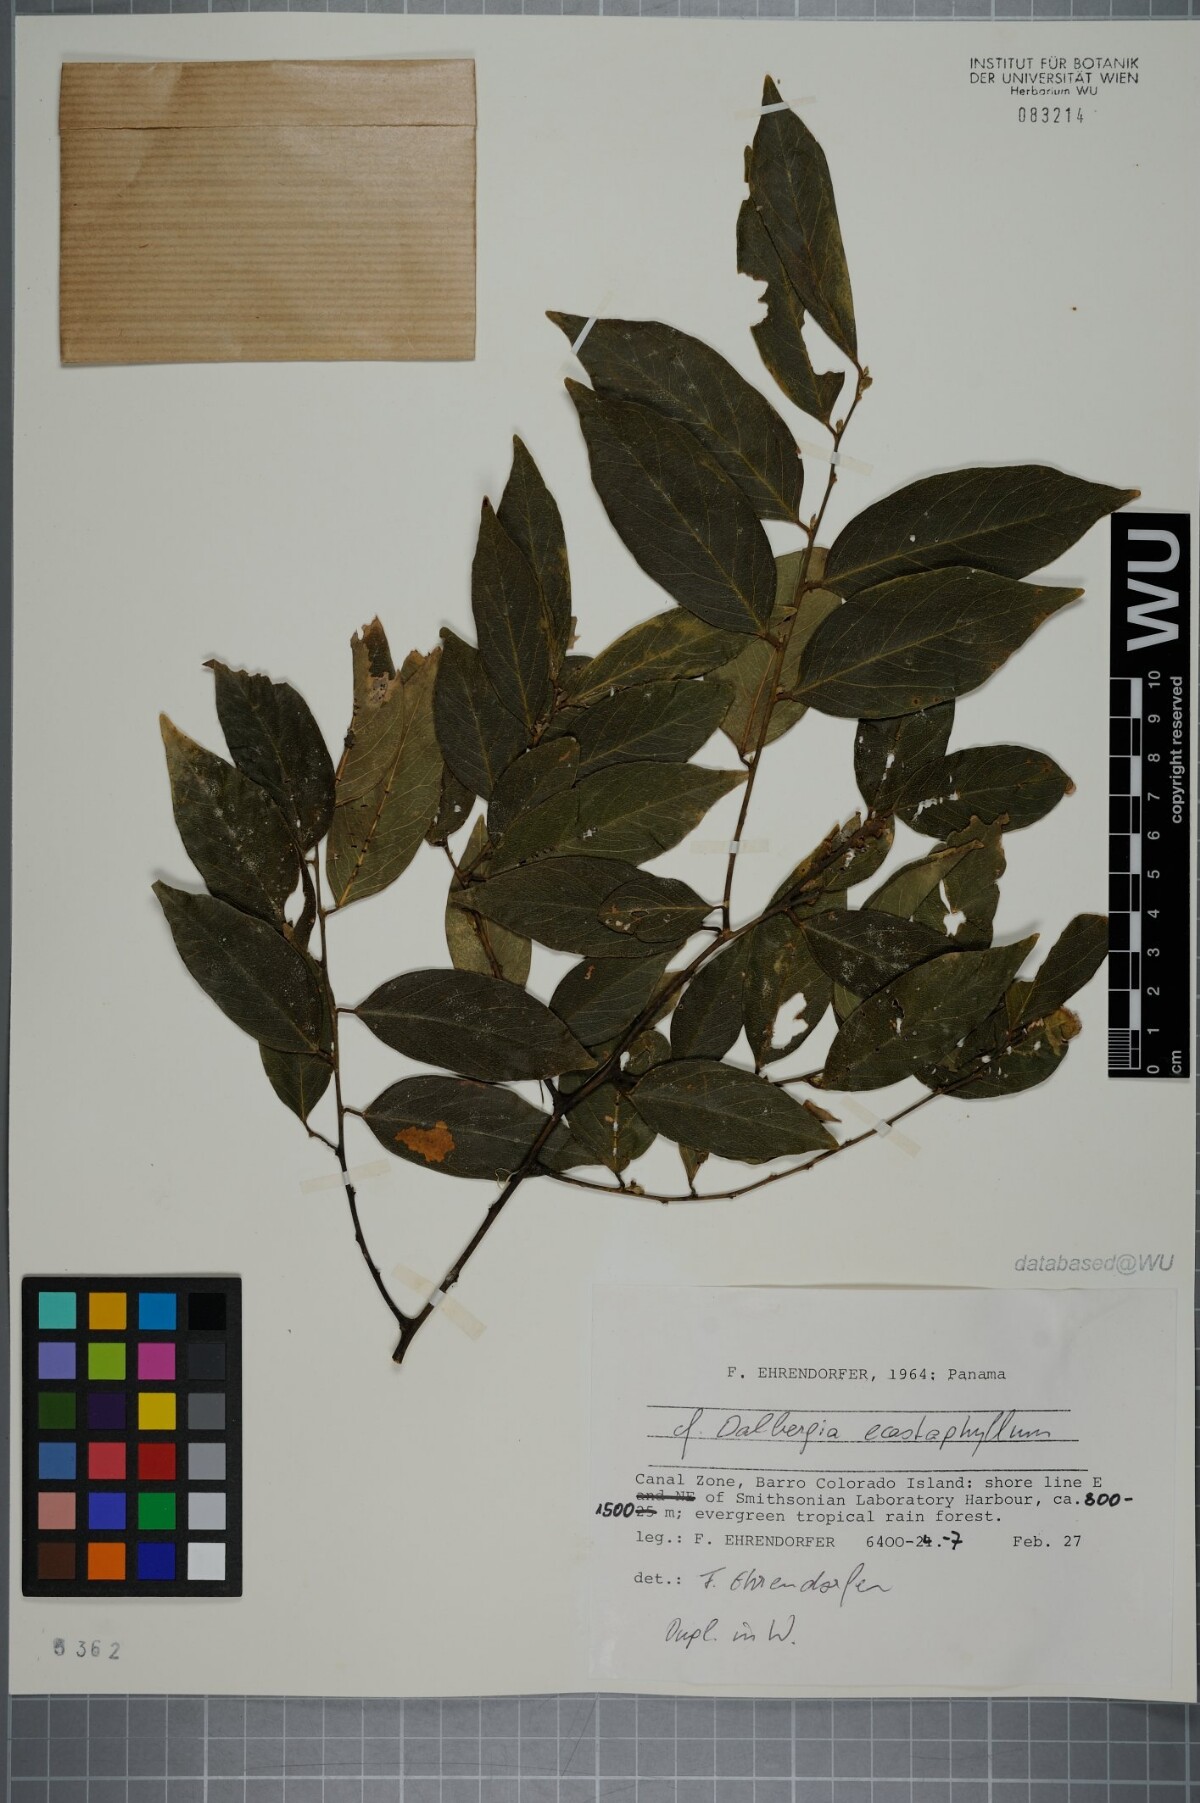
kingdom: Plantae
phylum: Tracheophyta
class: Magnoliopsida
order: Fabales
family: Fabaceae
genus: Dalbergia
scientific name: Dalbergia ecastaphyllum
